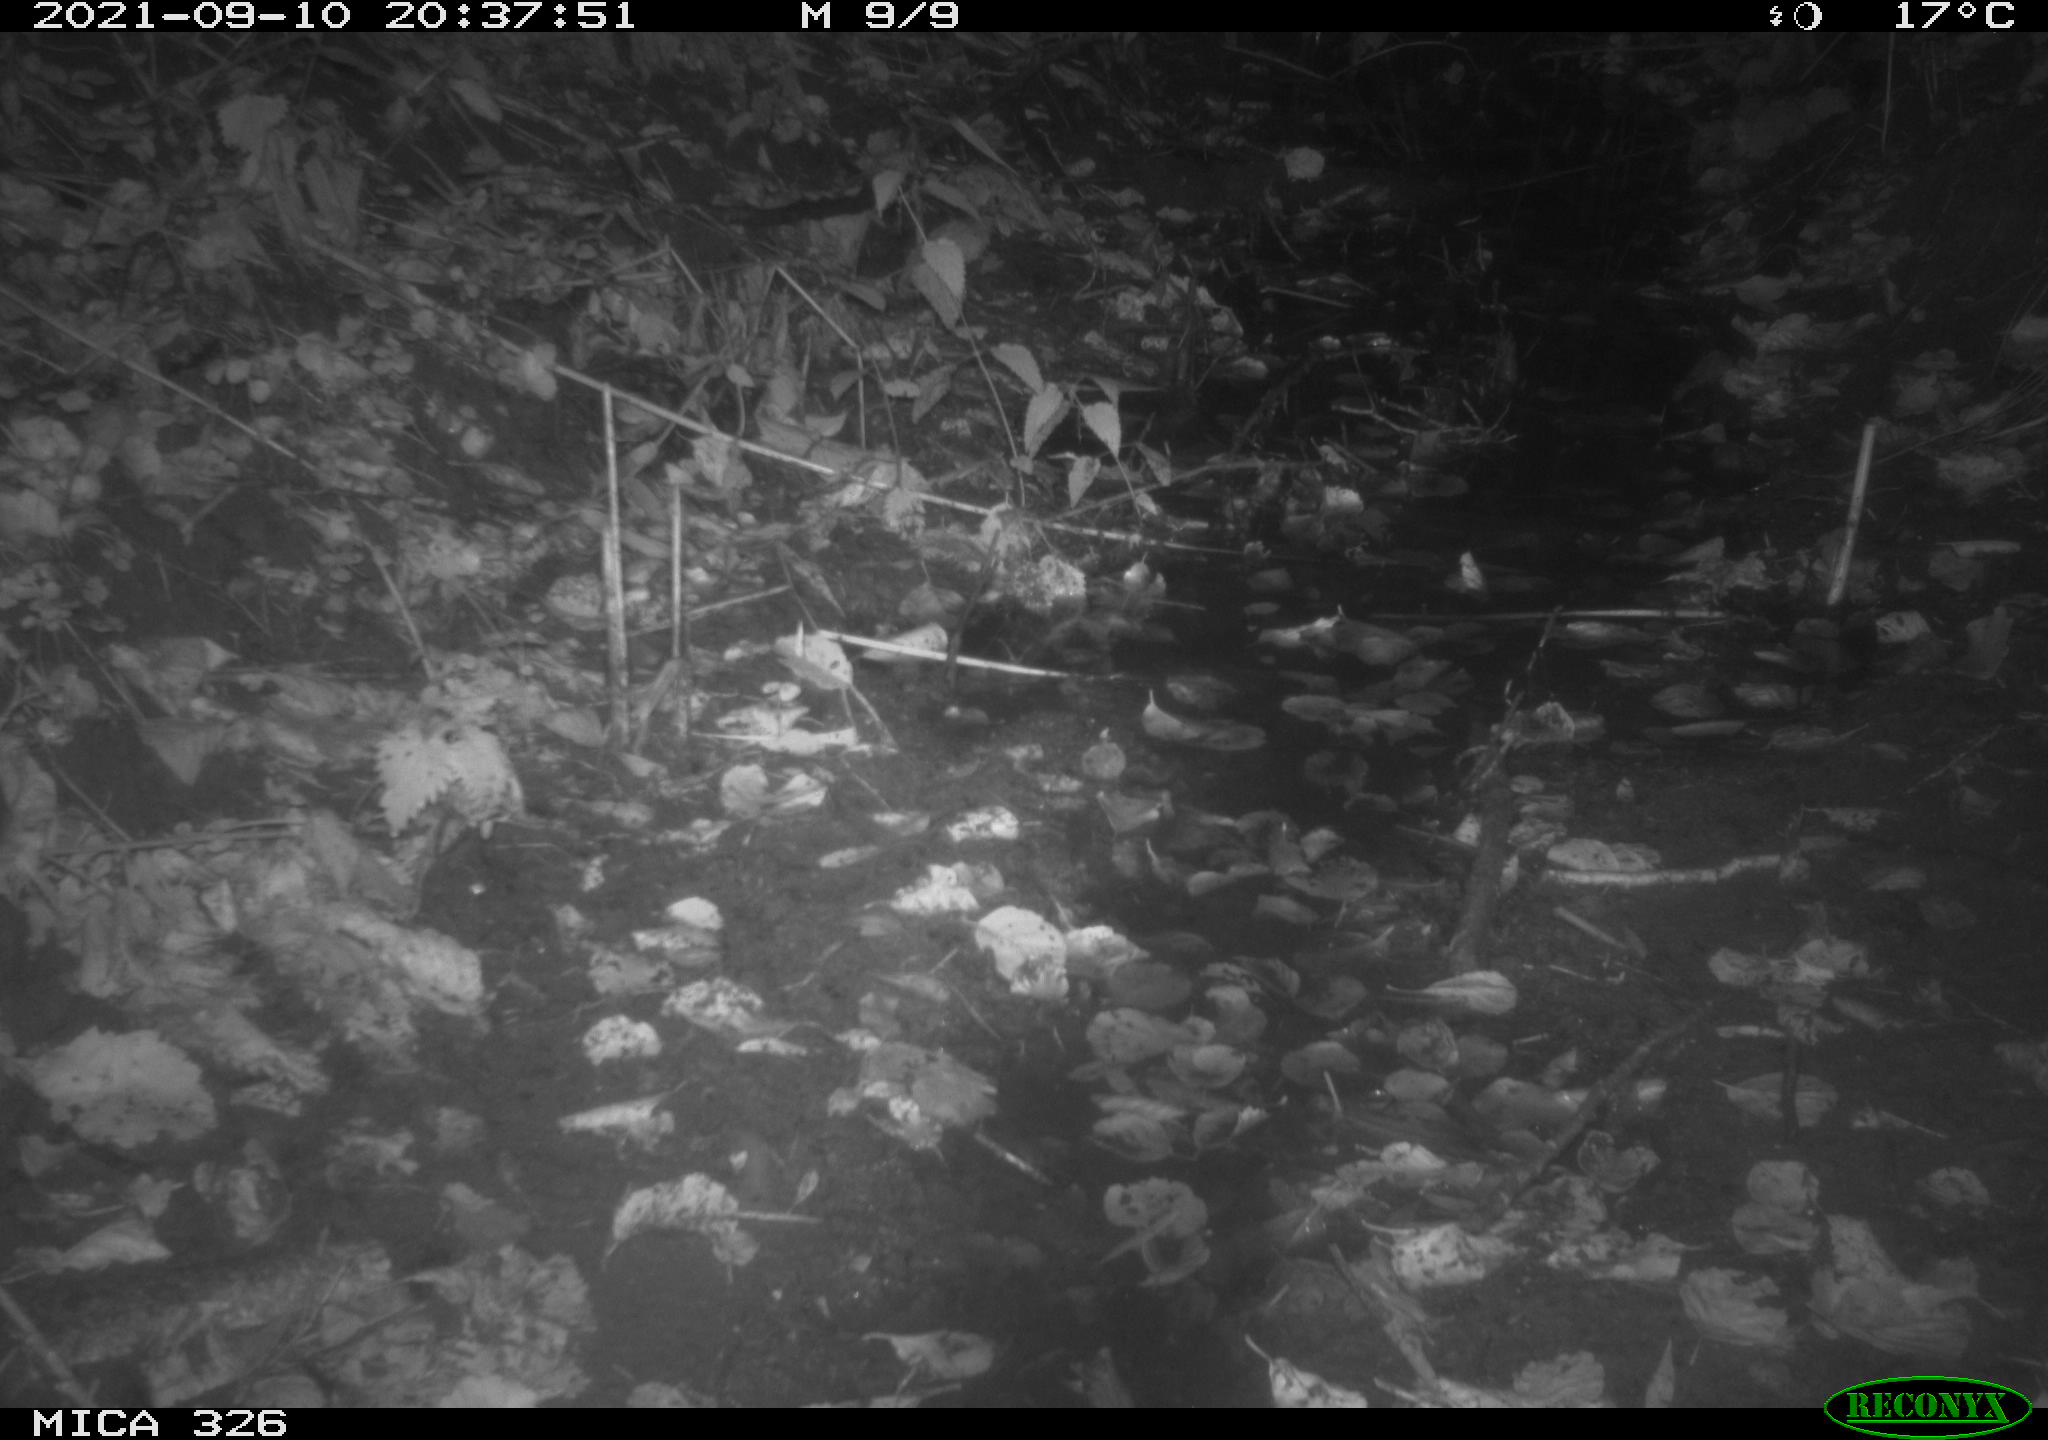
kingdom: Animalia
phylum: Chordata
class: Mammalia
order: Rodentia
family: Muridae
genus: Rattus
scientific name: Rattus norvegicus
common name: Brown rat
